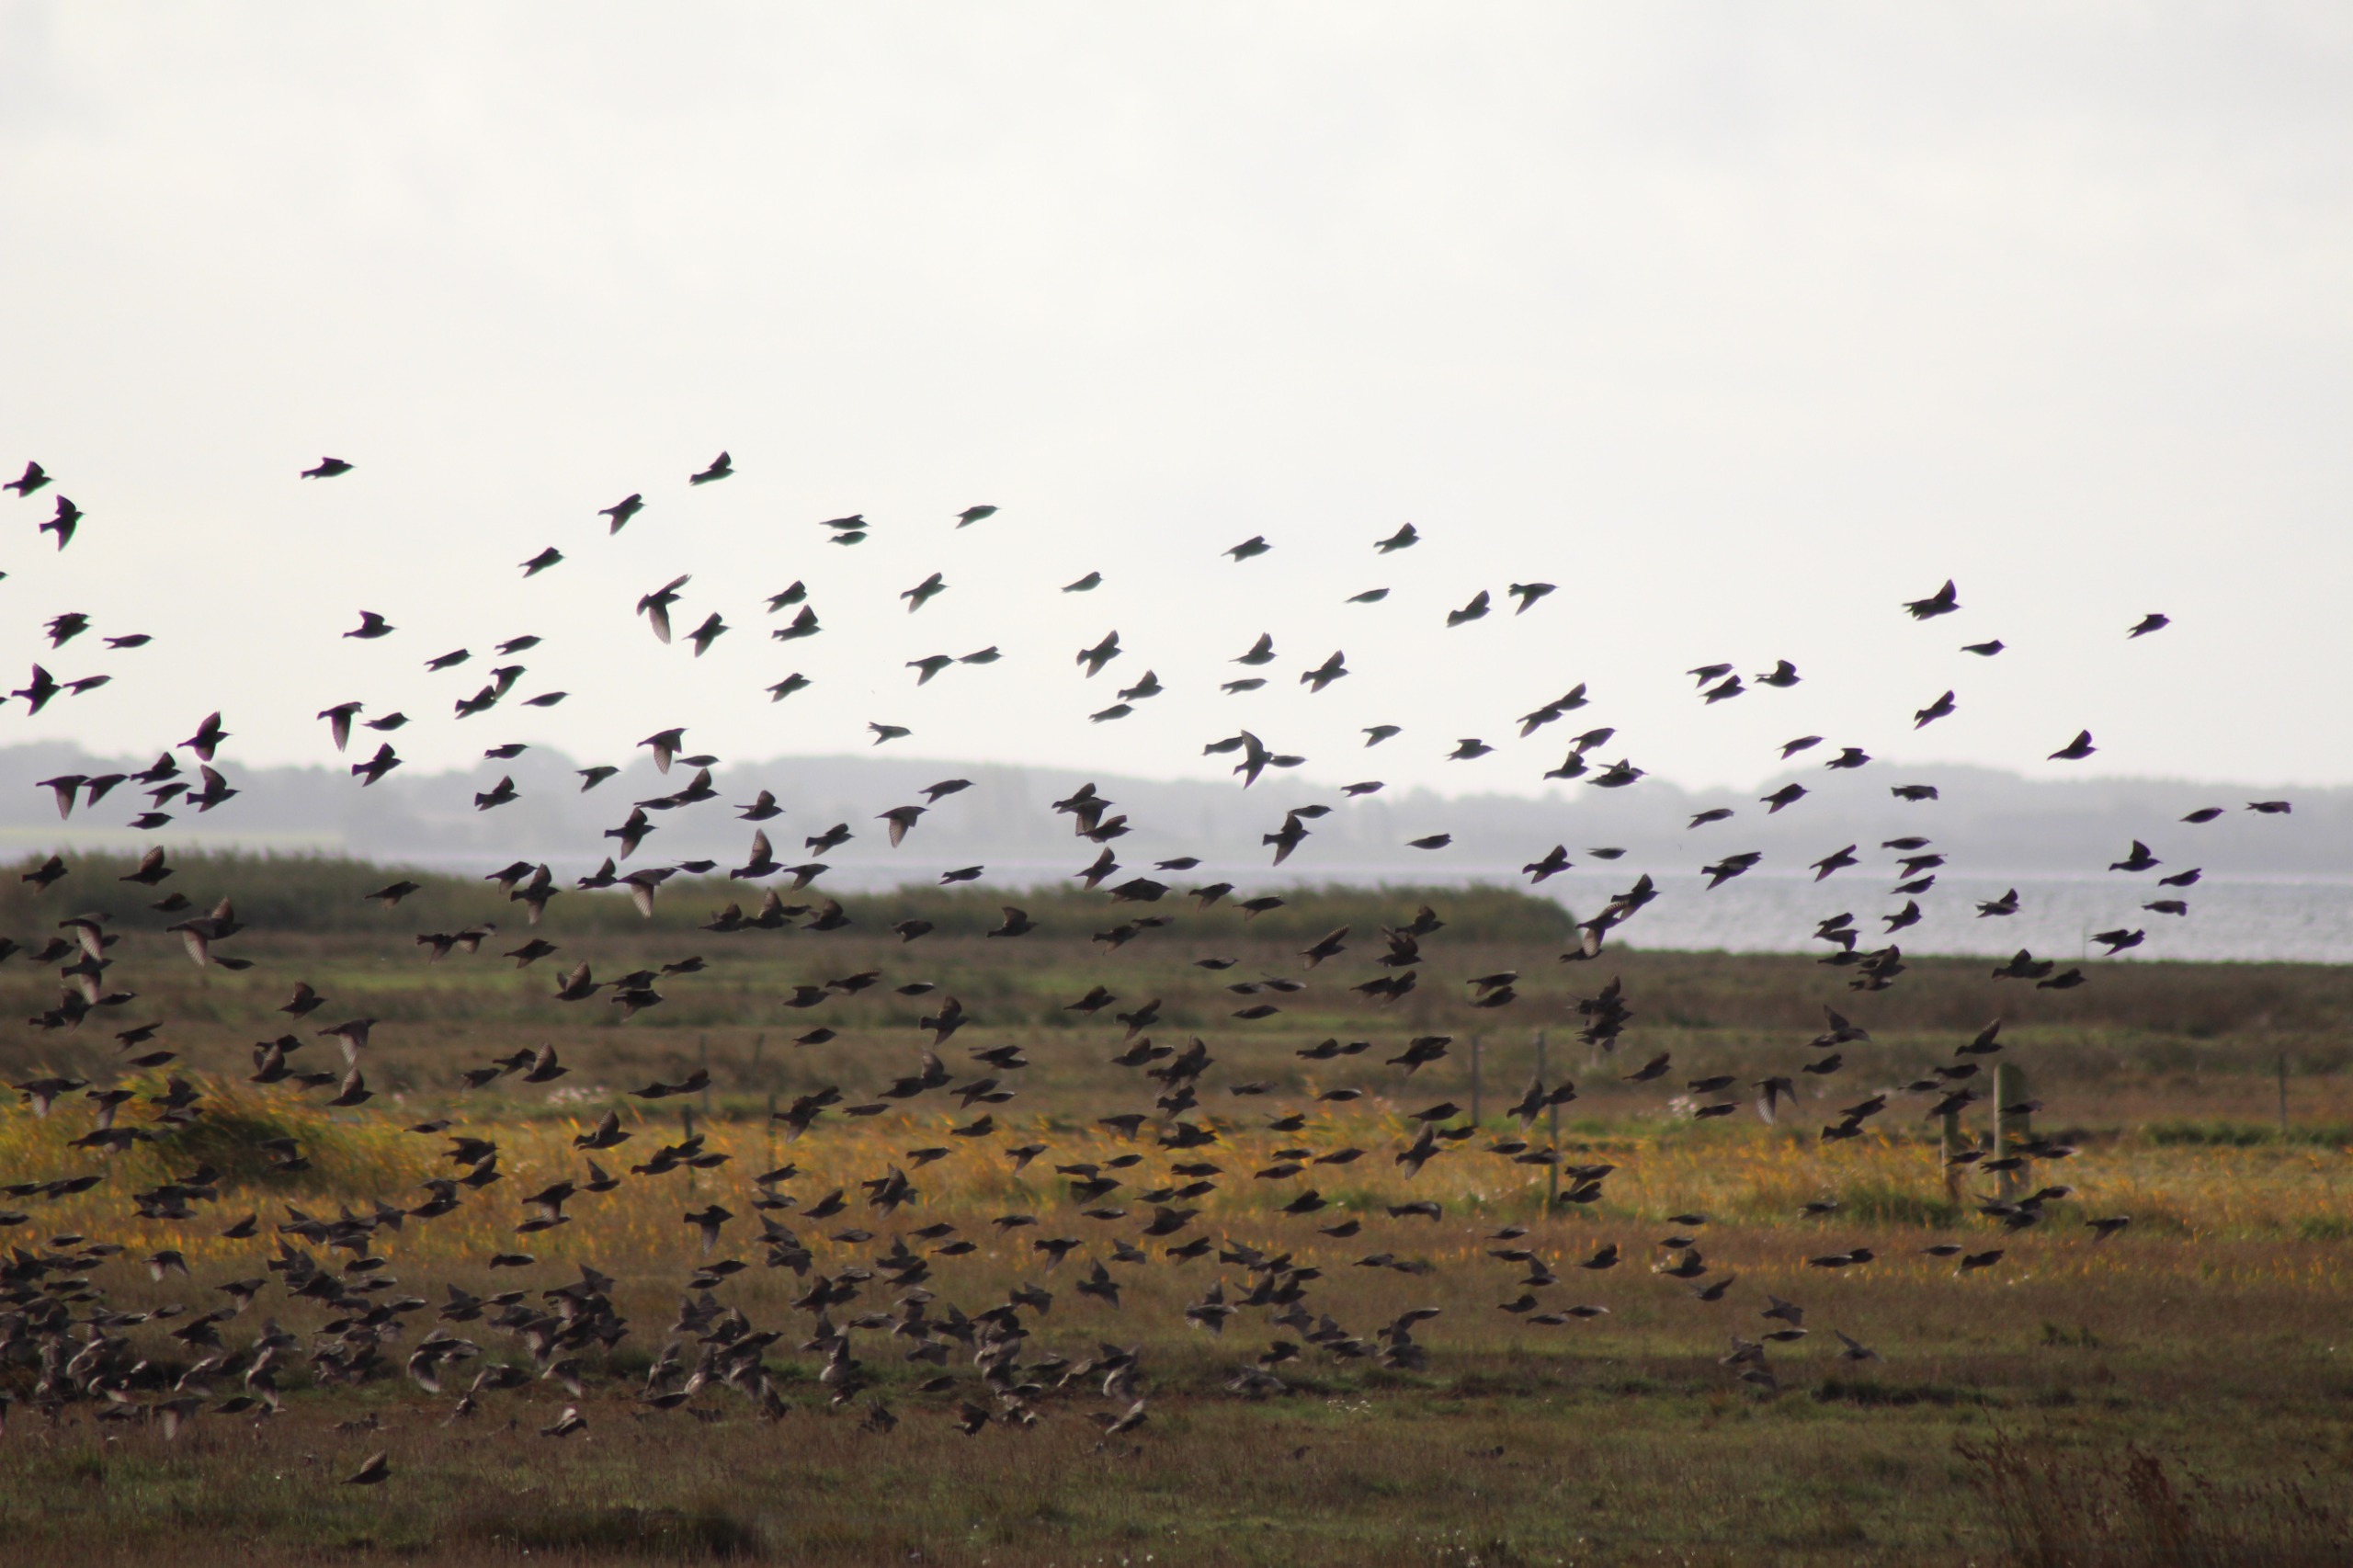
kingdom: Animalia
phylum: Chordata
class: Aves
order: Passeriformes
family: Sturnidae
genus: Sturnus
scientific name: Sturnus vulgaris
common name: Stær
